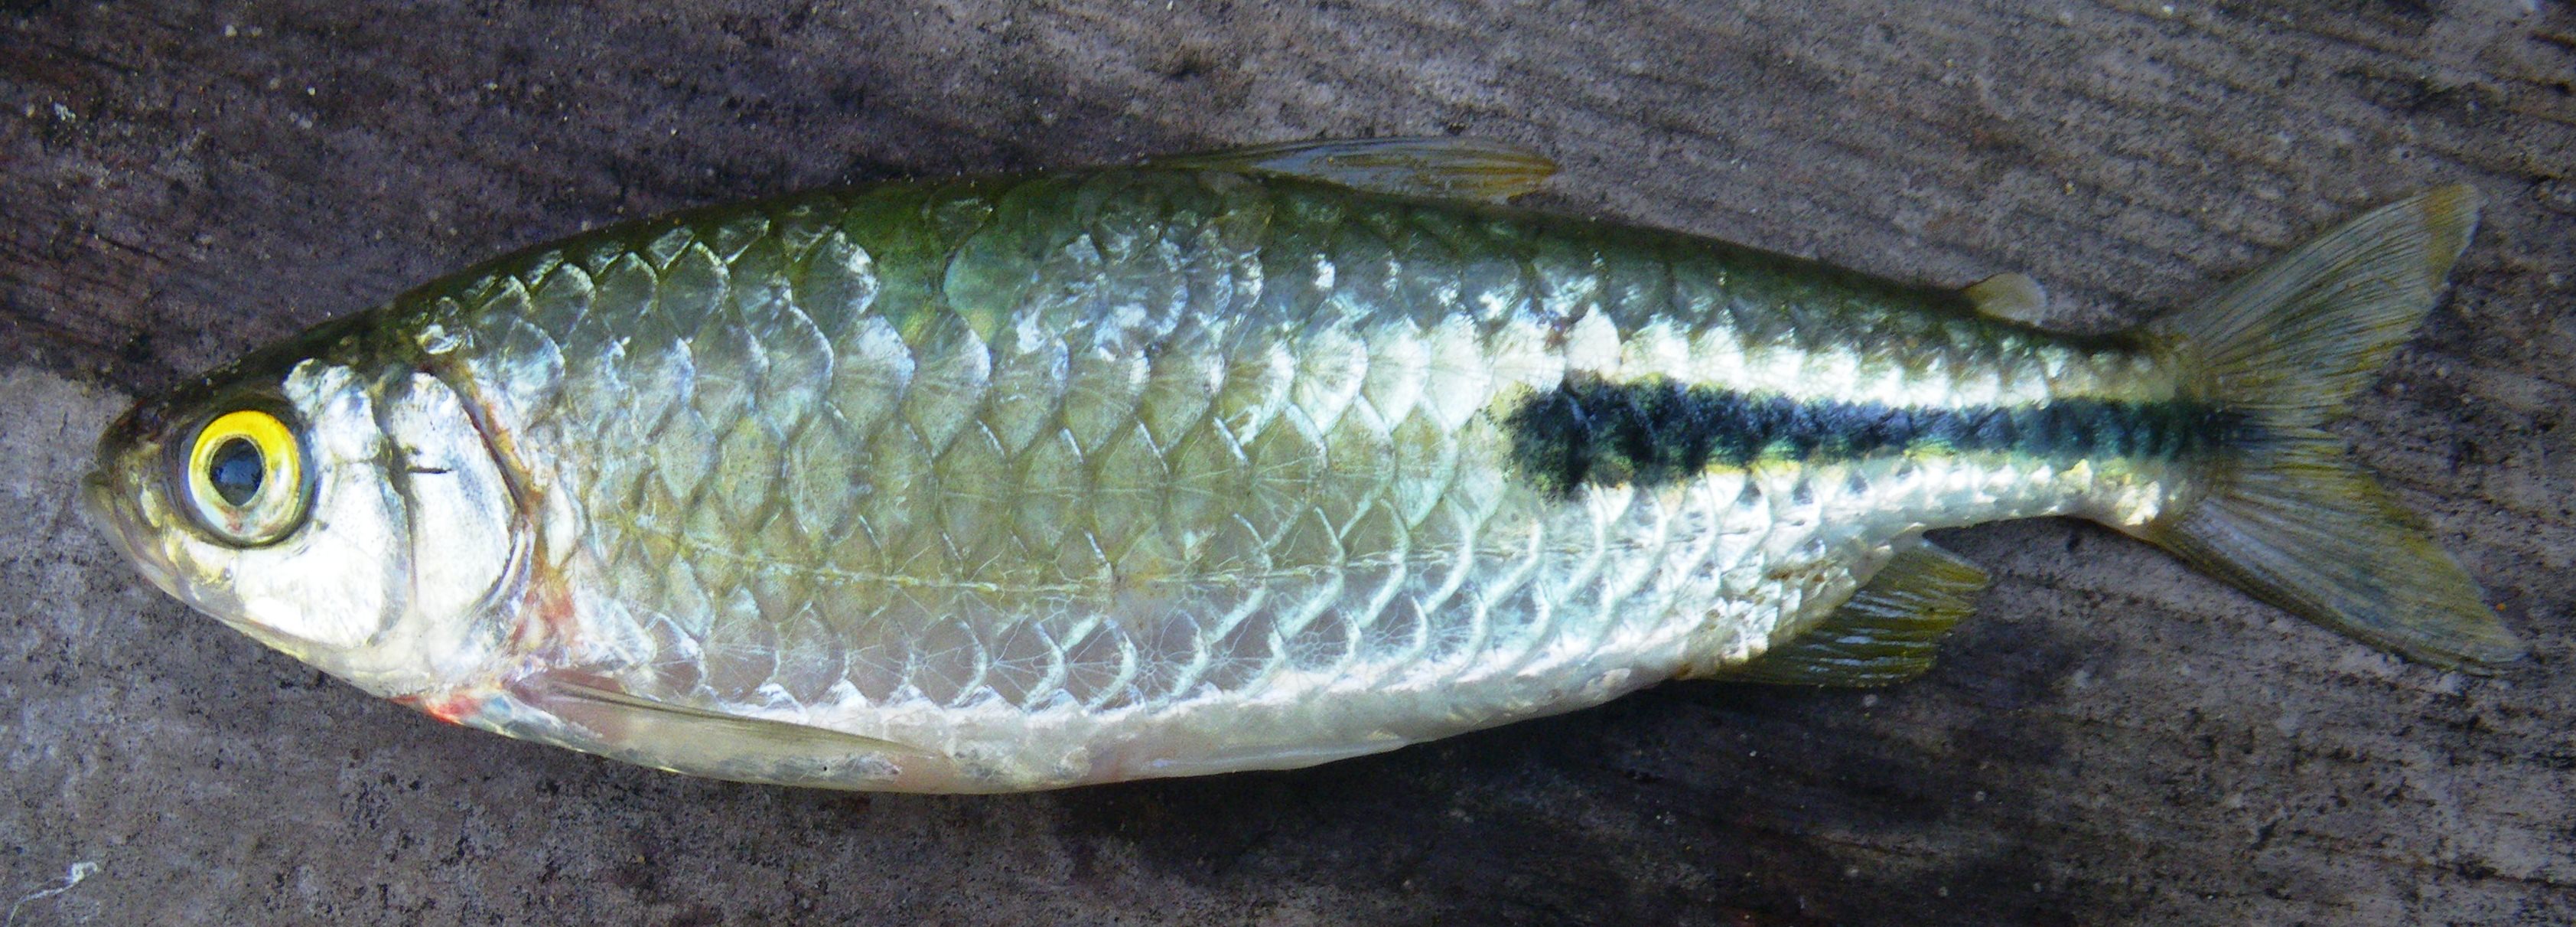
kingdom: Animalia
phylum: Chordata
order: Characiformes
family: Alestidae
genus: Brycinus
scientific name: Brycinus peringueyi
